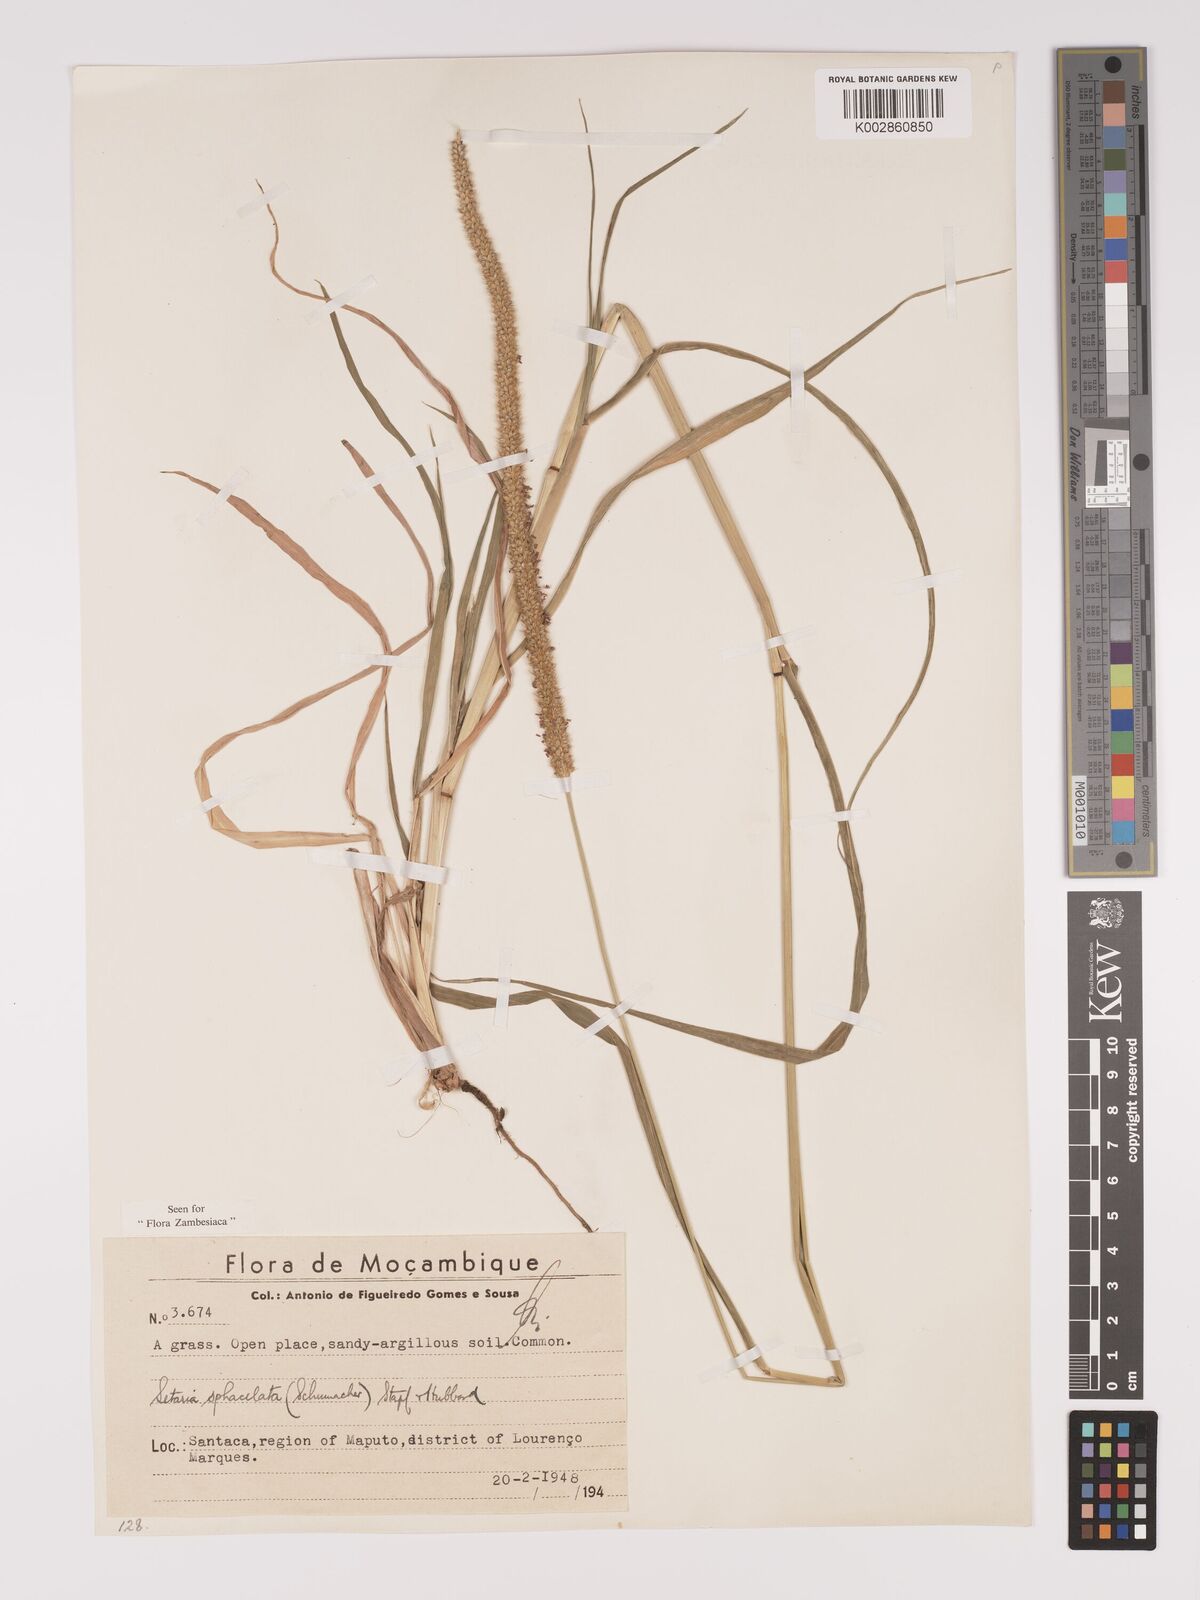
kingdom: Plantae
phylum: Tracheophyta
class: Liliopsida
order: Poales
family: Poaceae
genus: Setaria
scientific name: Setaria sphacelata
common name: African bristlegrass
